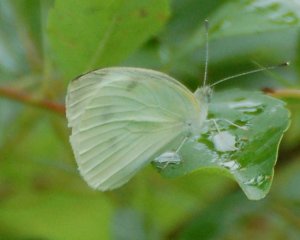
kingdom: Animalia
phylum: Arthropoda
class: Insecta
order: Lepidoptera
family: Pieridae
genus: Pieris
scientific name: Pieris rapae
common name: Cabbage White
